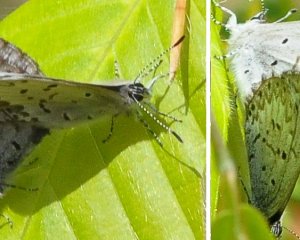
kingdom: Animalia
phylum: Arthropoda
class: Insecta
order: Lepidoptera
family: Lycaenidae
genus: Celastrina
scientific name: Celastrina lucia
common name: Northern Spring Azure
